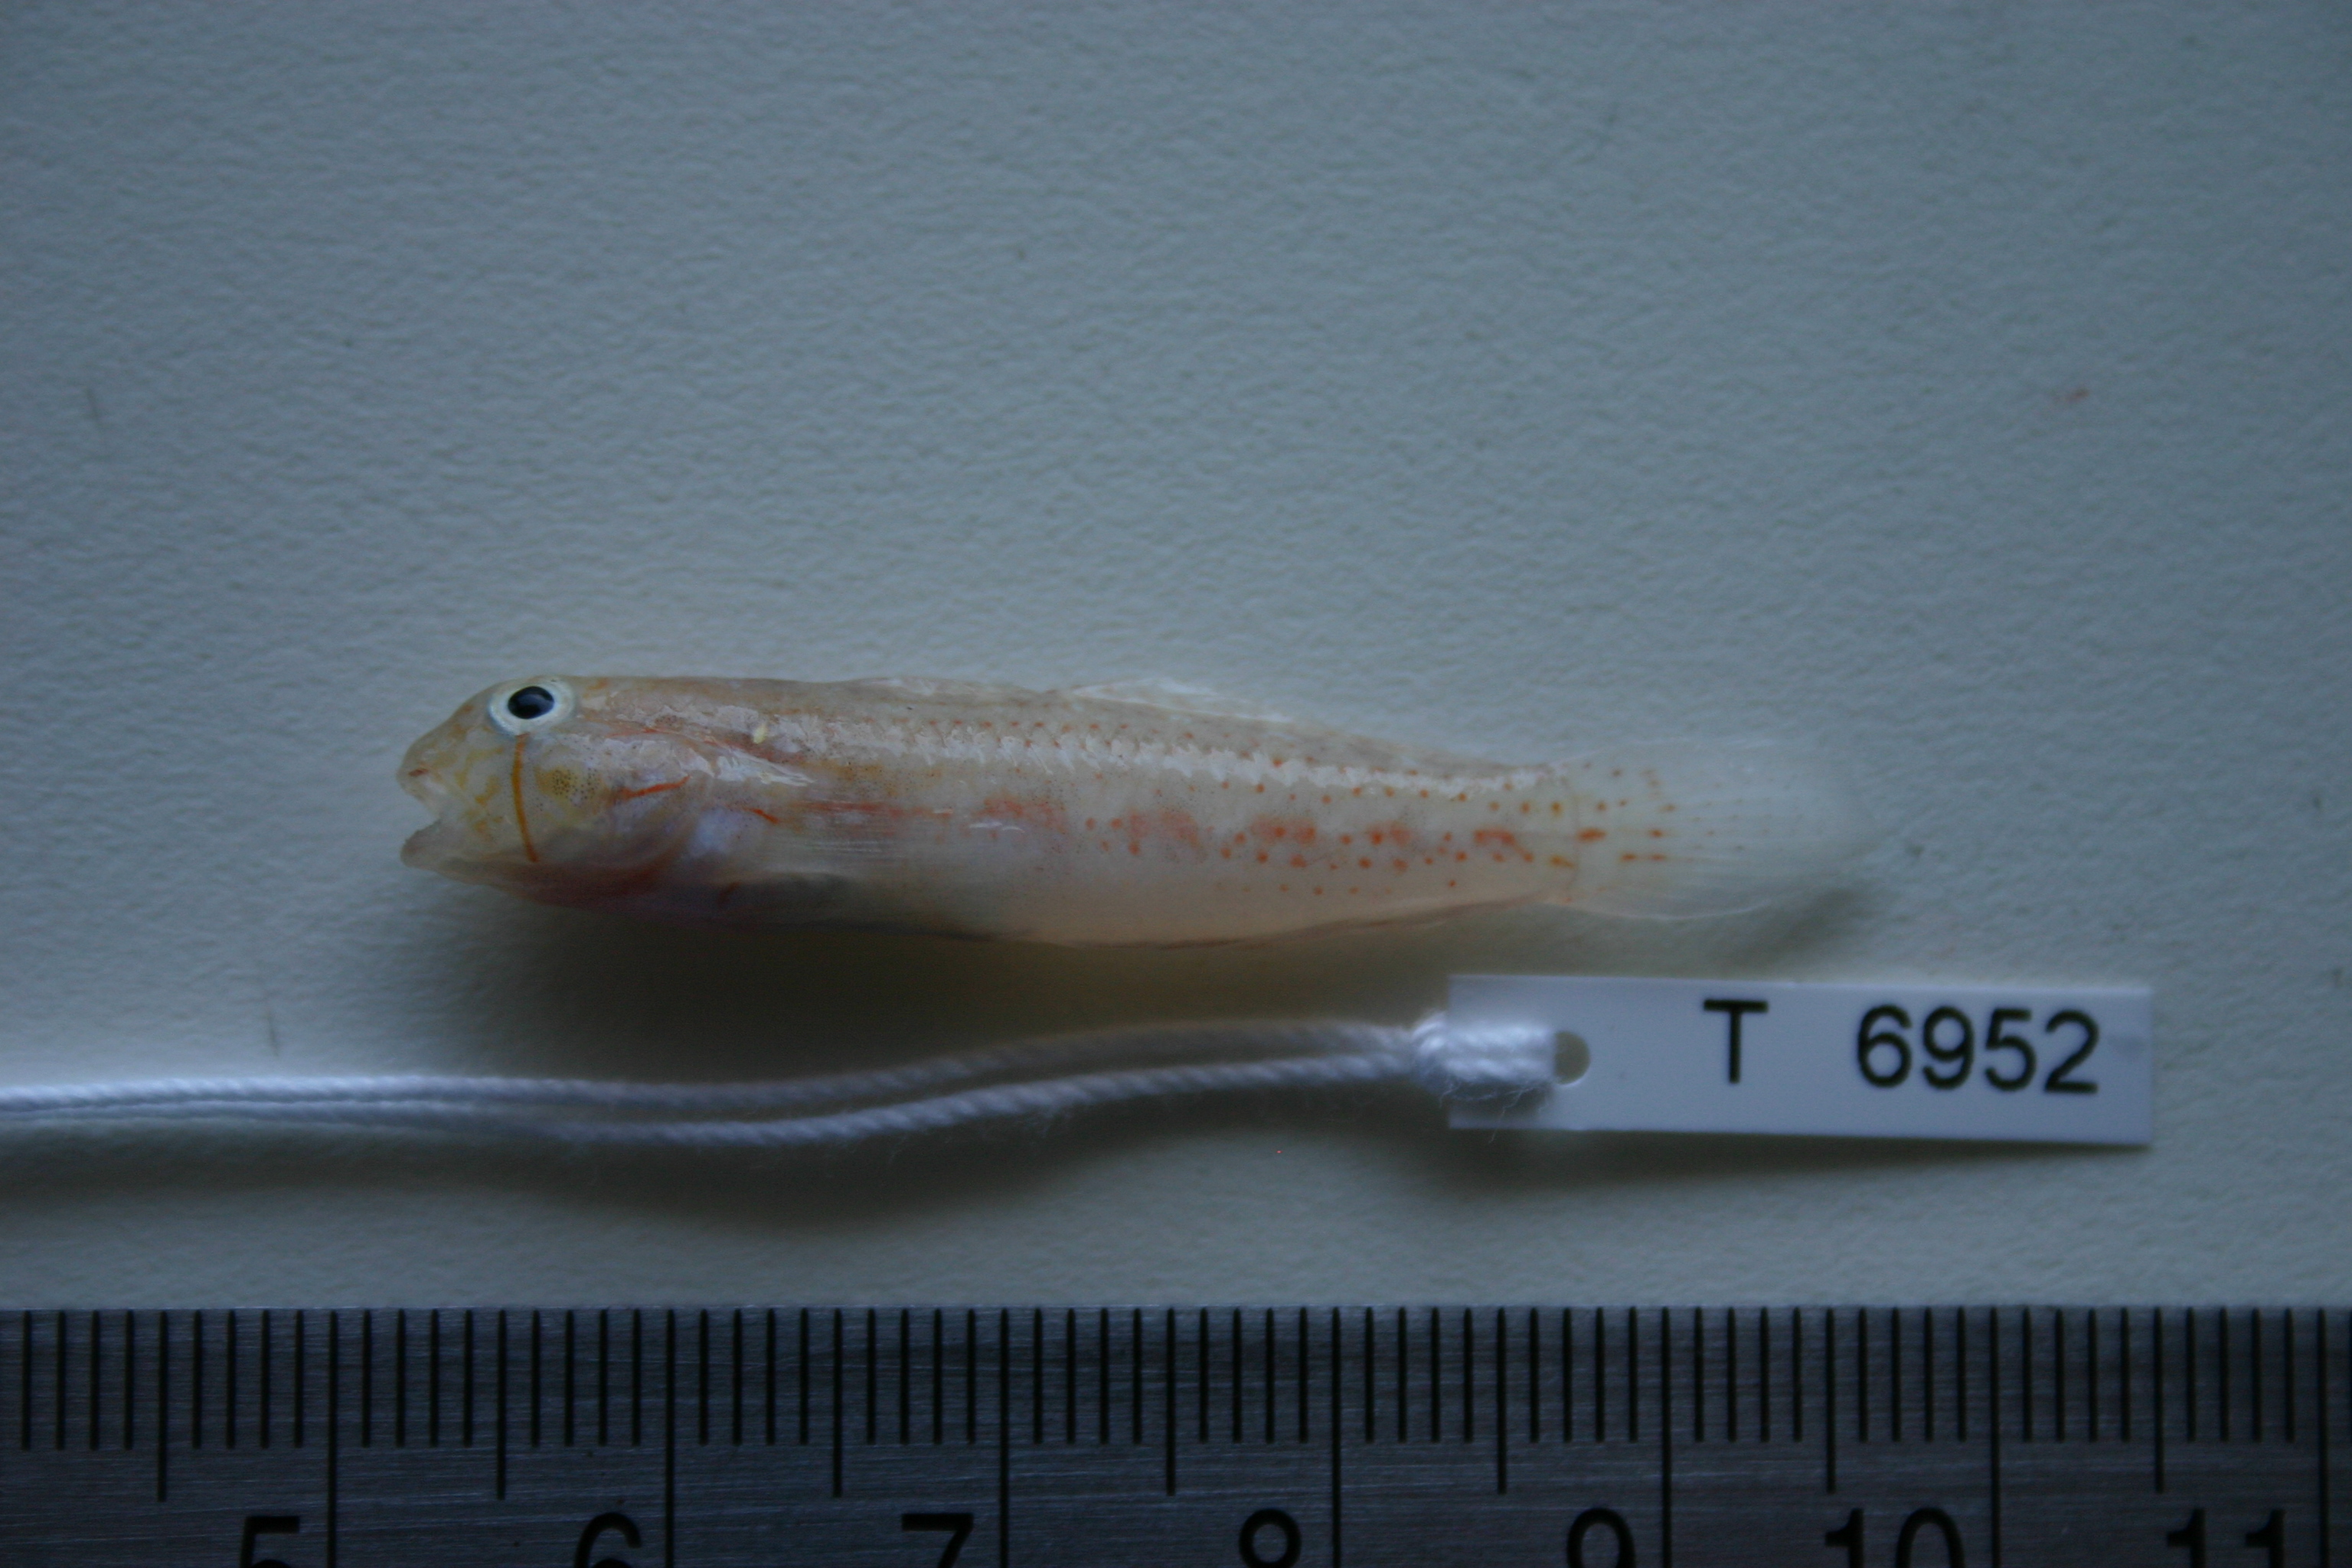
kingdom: Animalia
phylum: Chordata
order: Perciformes
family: Gobiidae
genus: Gnatholepis
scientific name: Gnatholepis cauerensis
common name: Bridled goby
